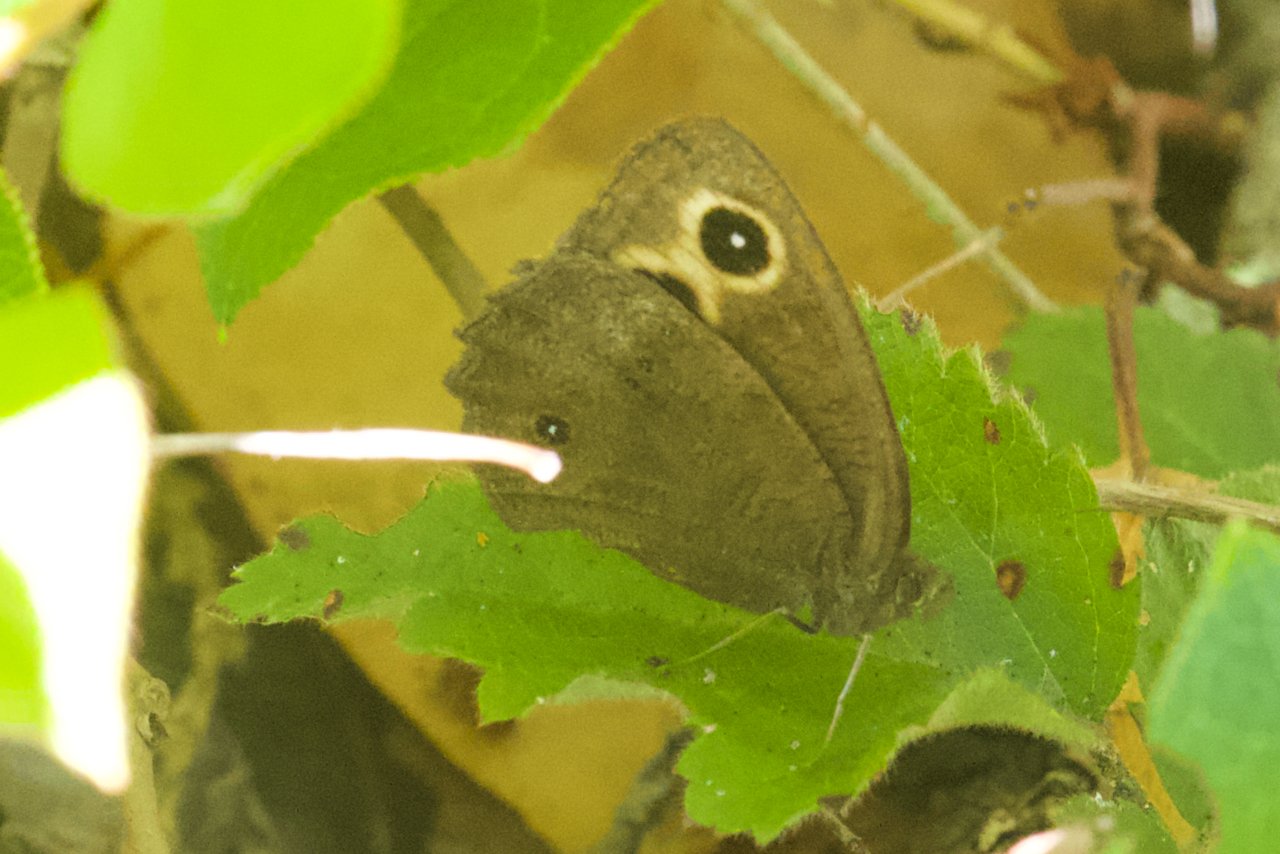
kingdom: Animalia
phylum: Arthropoda
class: Insecta
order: Lepidoptera
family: Nymphalidae
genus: Cercyonis
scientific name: Cercyonis pegala
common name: Common Wood-Nymph
